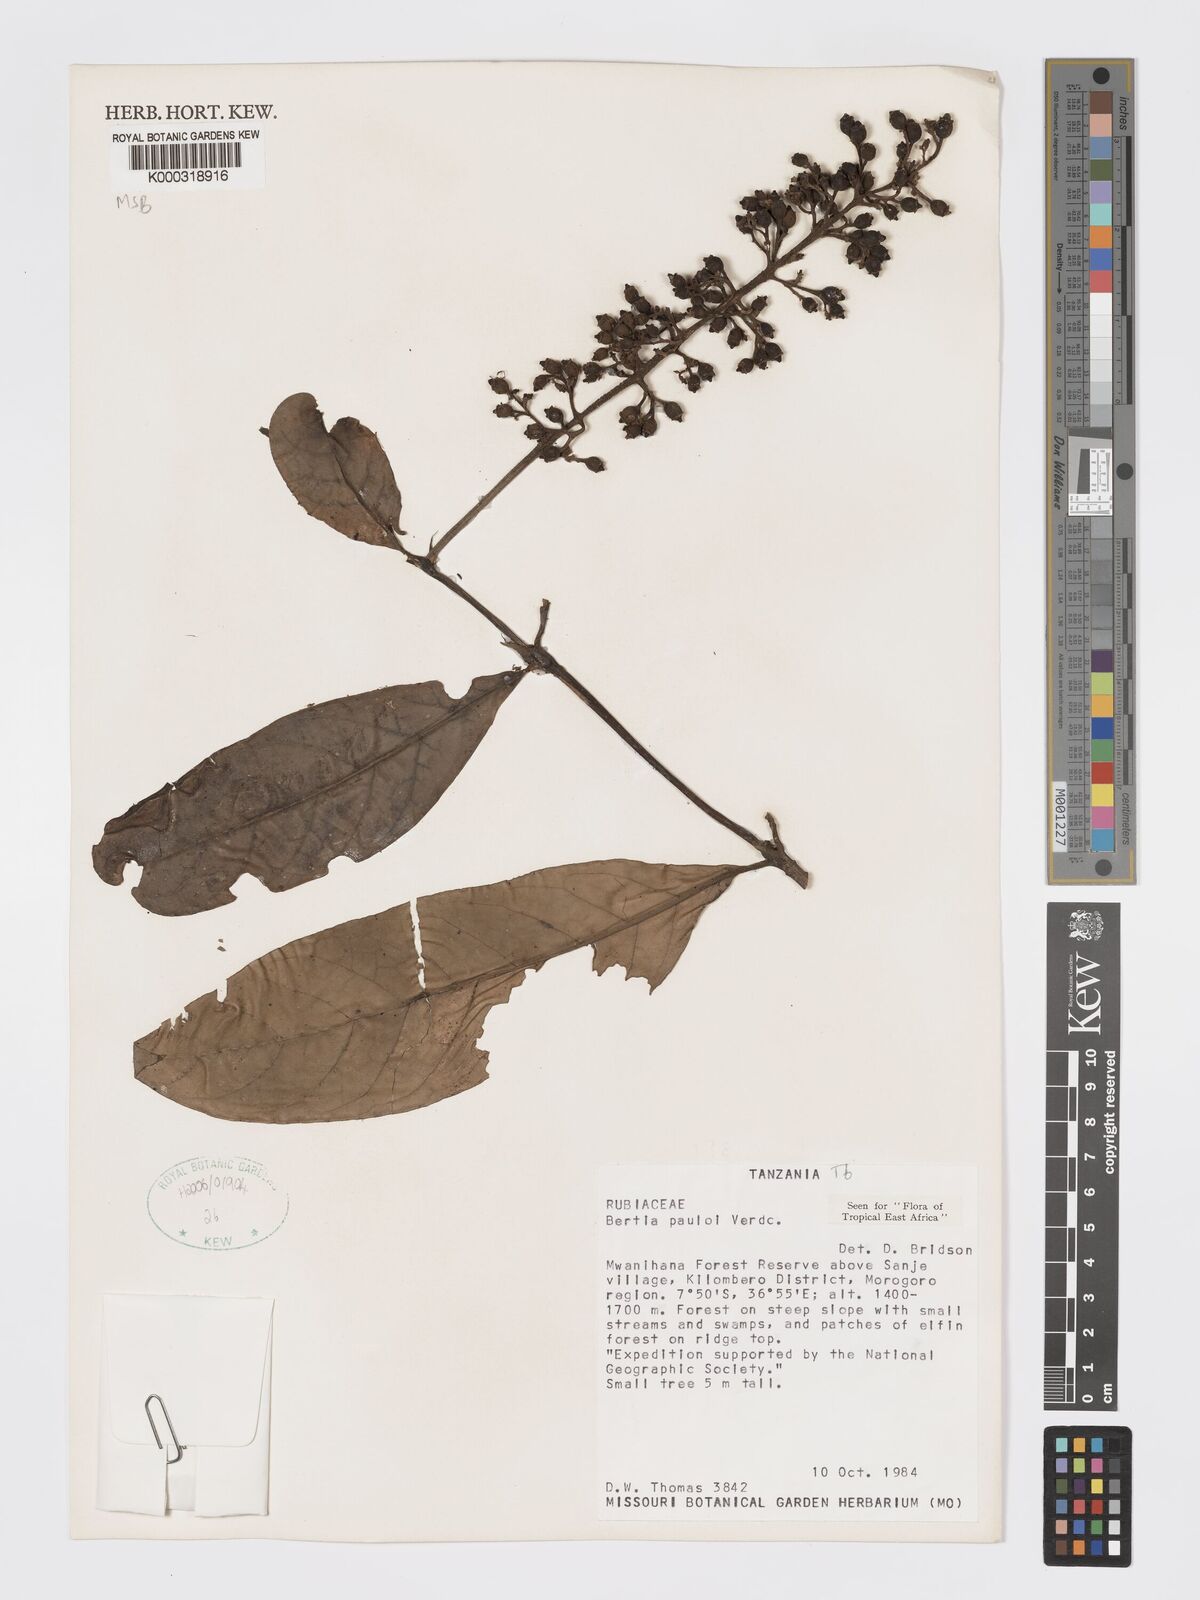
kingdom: Plantae
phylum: Tracheophyta
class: Magnoliopsida
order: Gentianales
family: Rubiaceae
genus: Bertiera
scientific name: Bertiera pauloi
